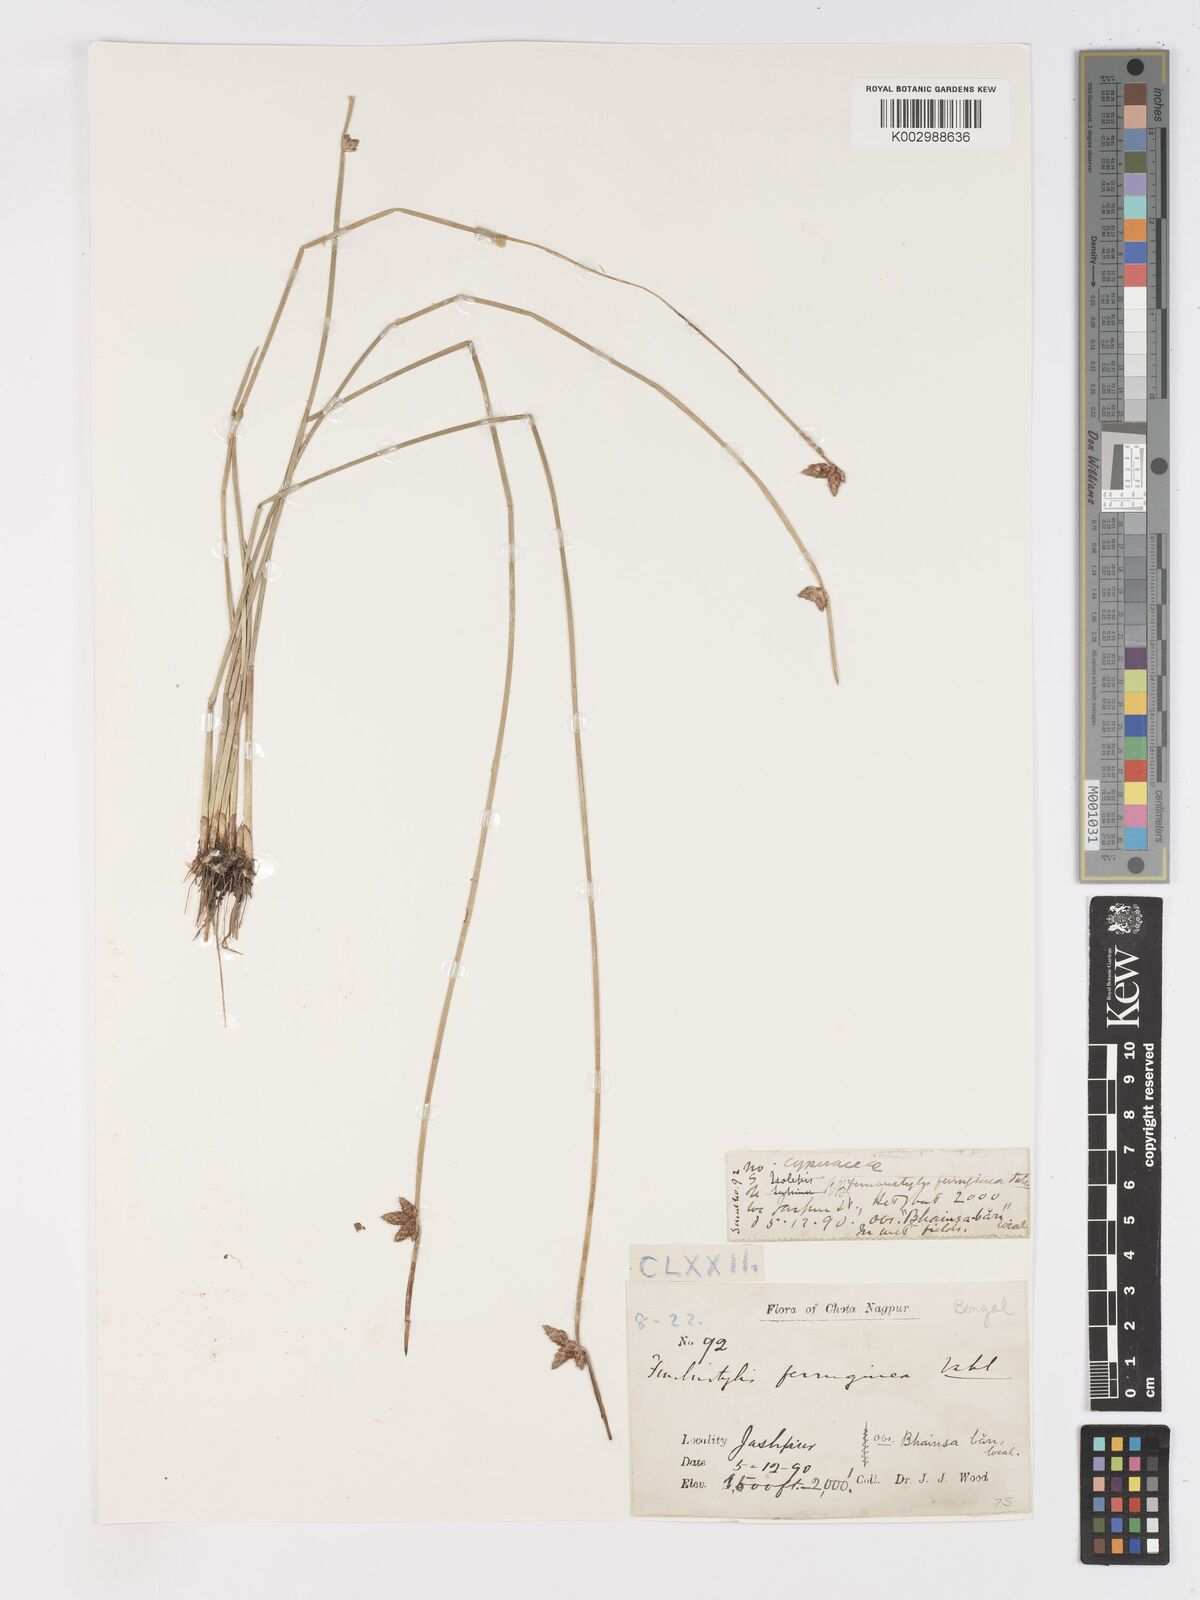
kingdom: Plantae
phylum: Tracheophyta
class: Liliopsida
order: Poales
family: Cyperaceae
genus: Schoenoplectiella
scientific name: Schoenoplectiella juncoides
